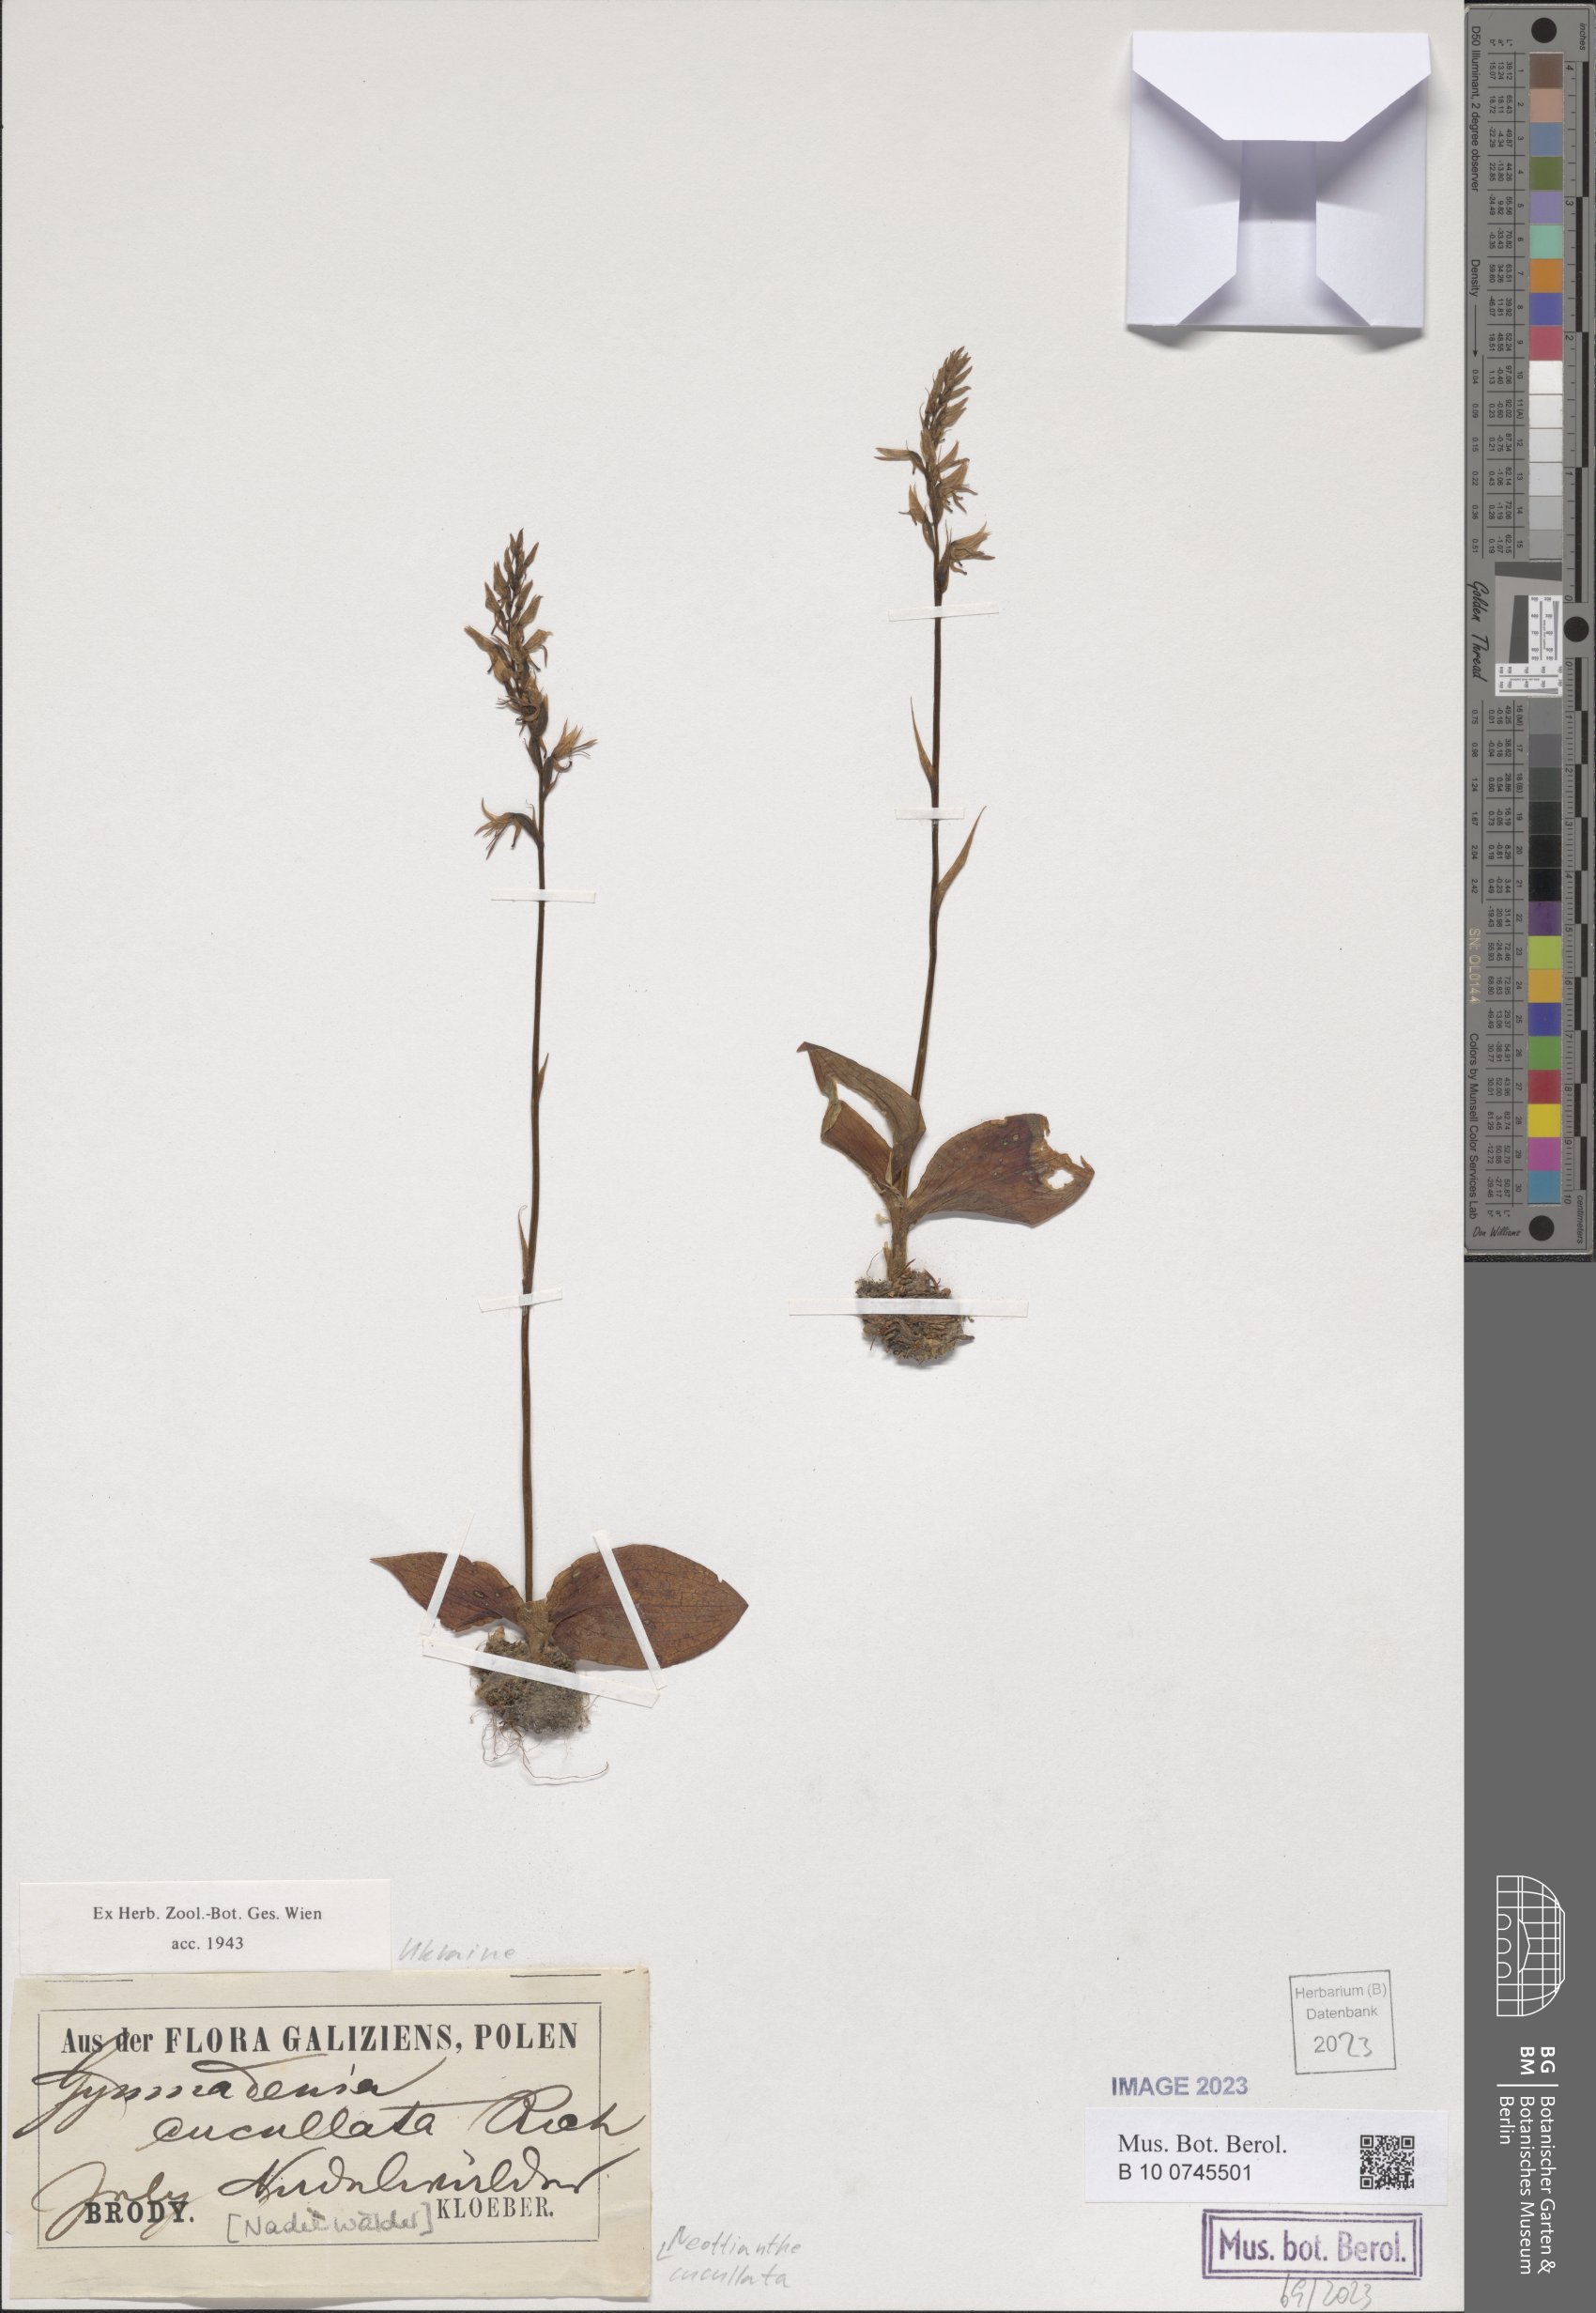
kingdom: Plantae
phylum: Tracheophyta
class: Liliopsida
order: Asparagales
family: Orchidaceae
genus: Hemipilia
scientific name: Hemipilia cucullata
